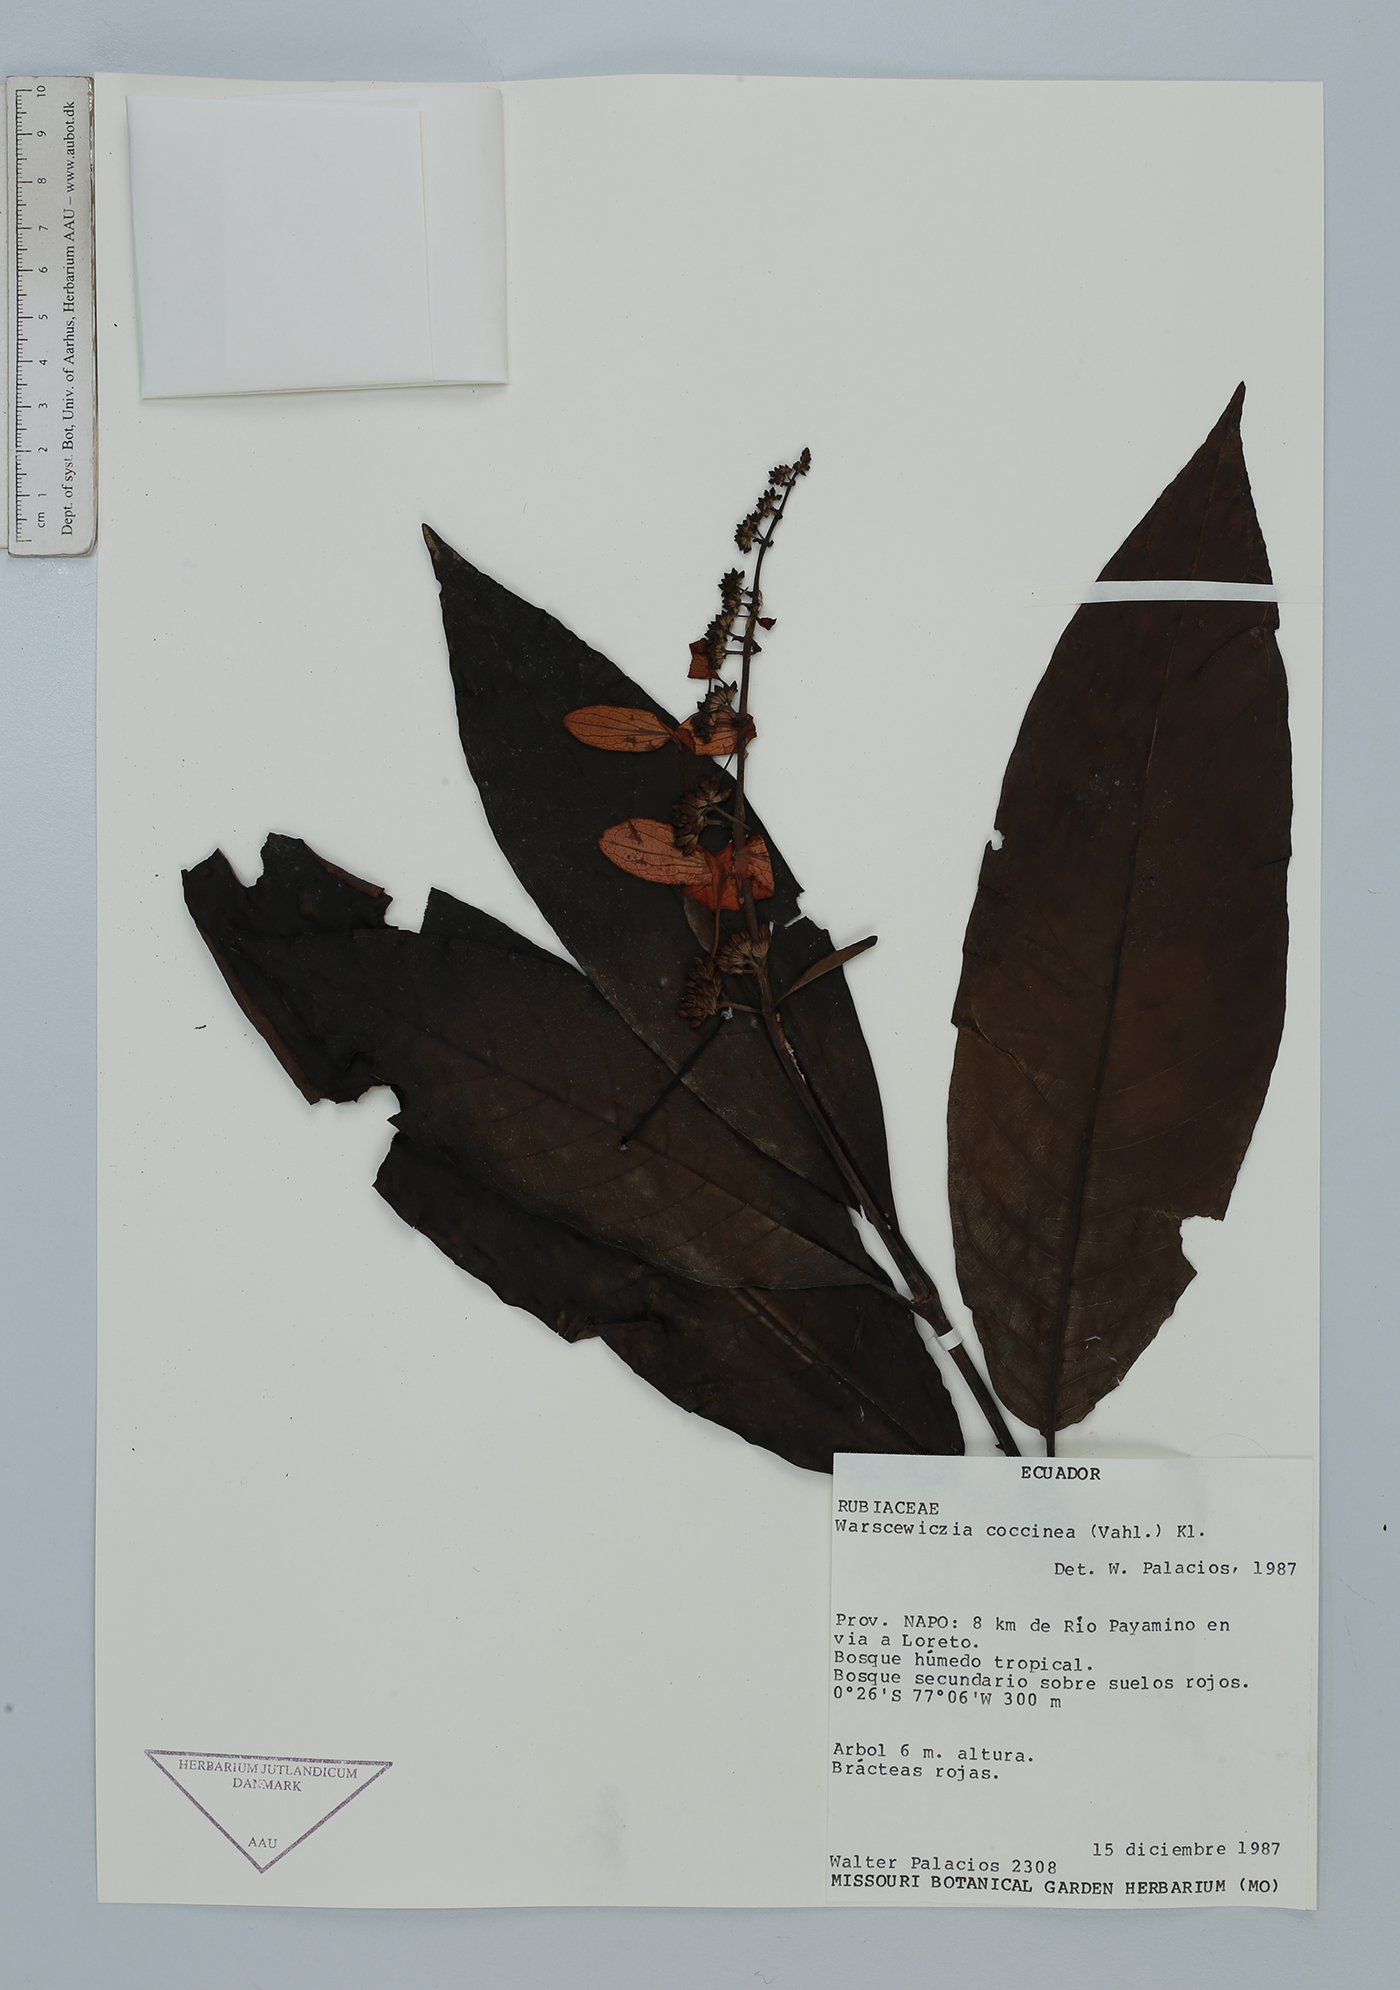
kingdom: Plantae
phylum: Tracheophyta
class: Magnoliopsida
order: Gentianales
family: Rubiaceae
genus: Warszewiczia
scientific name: Warszewiczia coccinea
